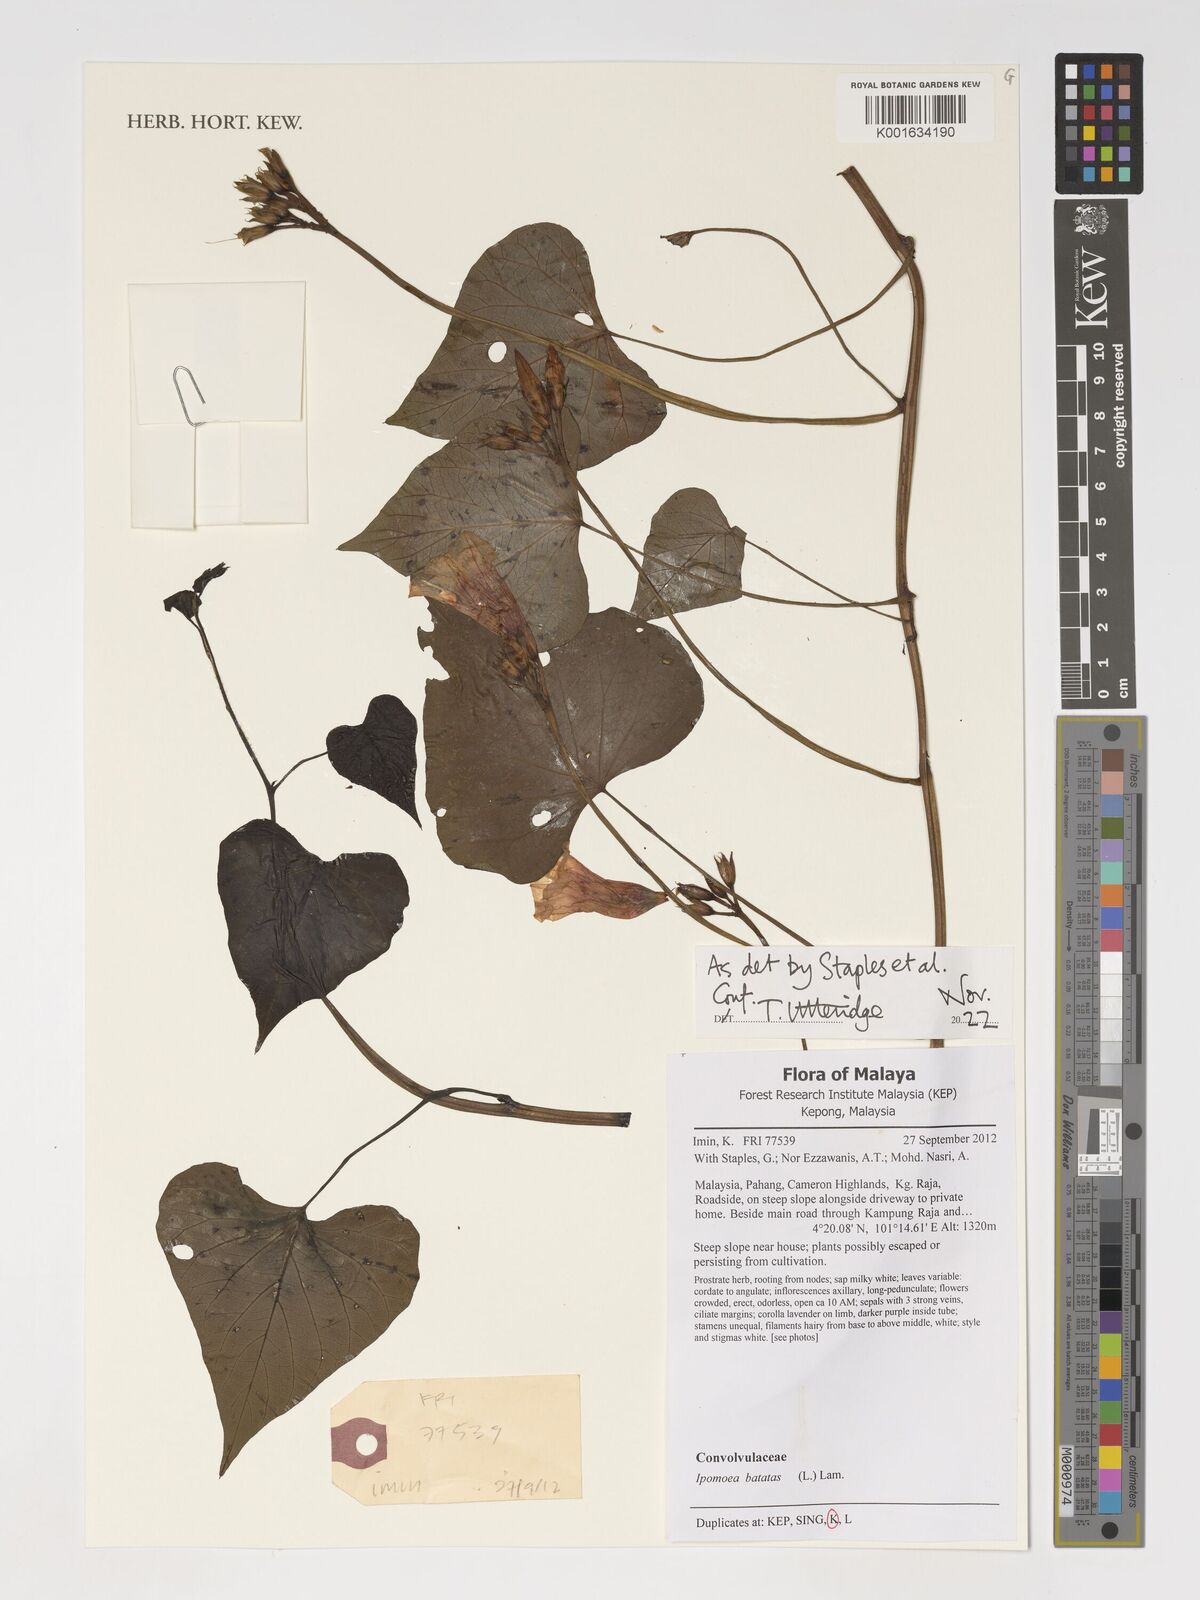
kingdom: Plantae
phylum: Tracheophyta
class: Magnoliopsida
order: Solanales
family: Convolvulaceae
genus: Ipomoea
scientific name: Ipomoea batatas
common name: Sweet-potato
